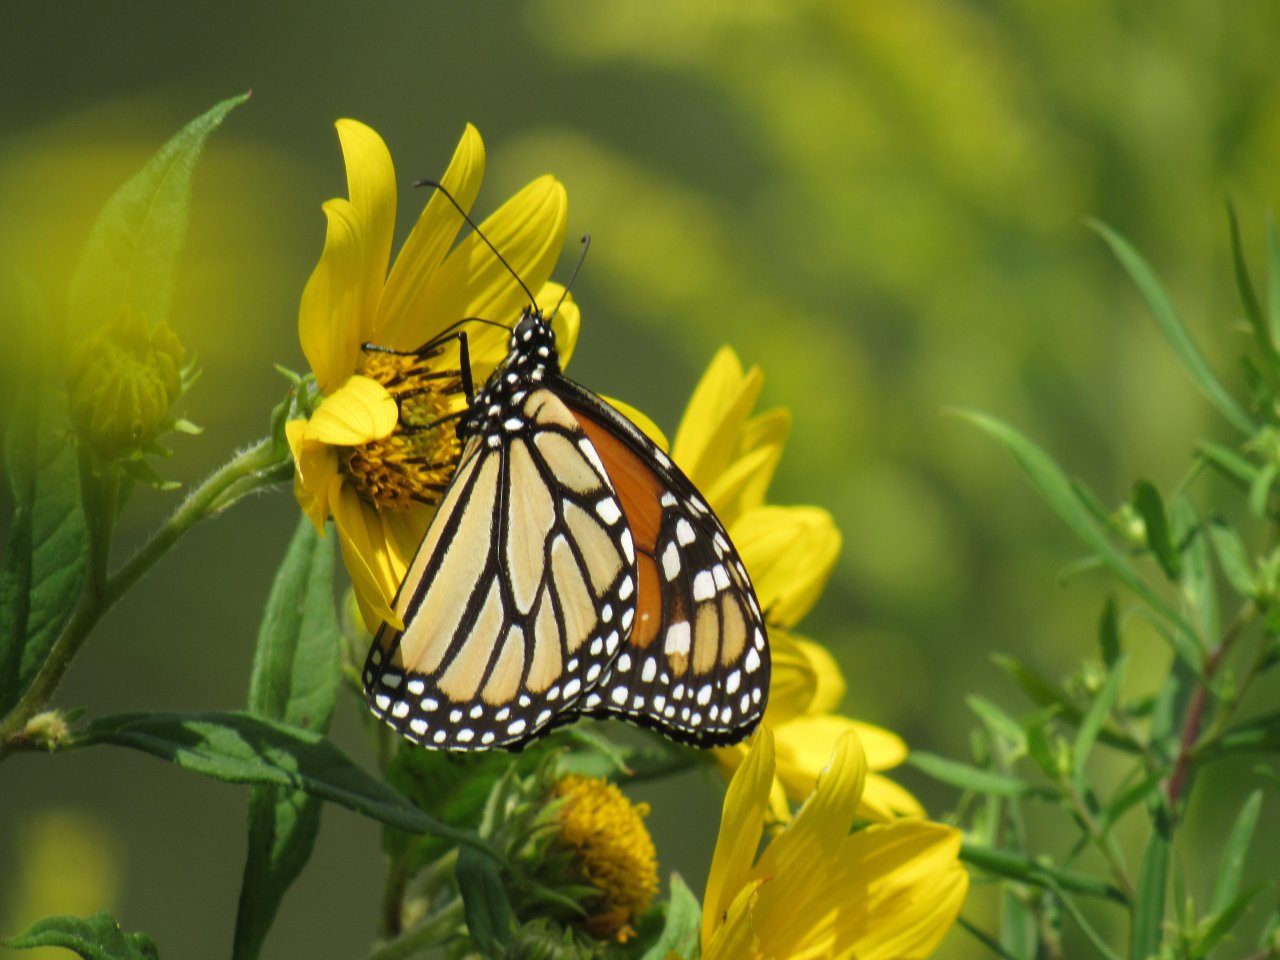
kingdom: Animalia
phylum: Arthropoda
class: Insecta
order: Lepidoptera
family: Nymphalidae
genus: Danaus
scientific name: Danaus plexippus
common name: Monarch
